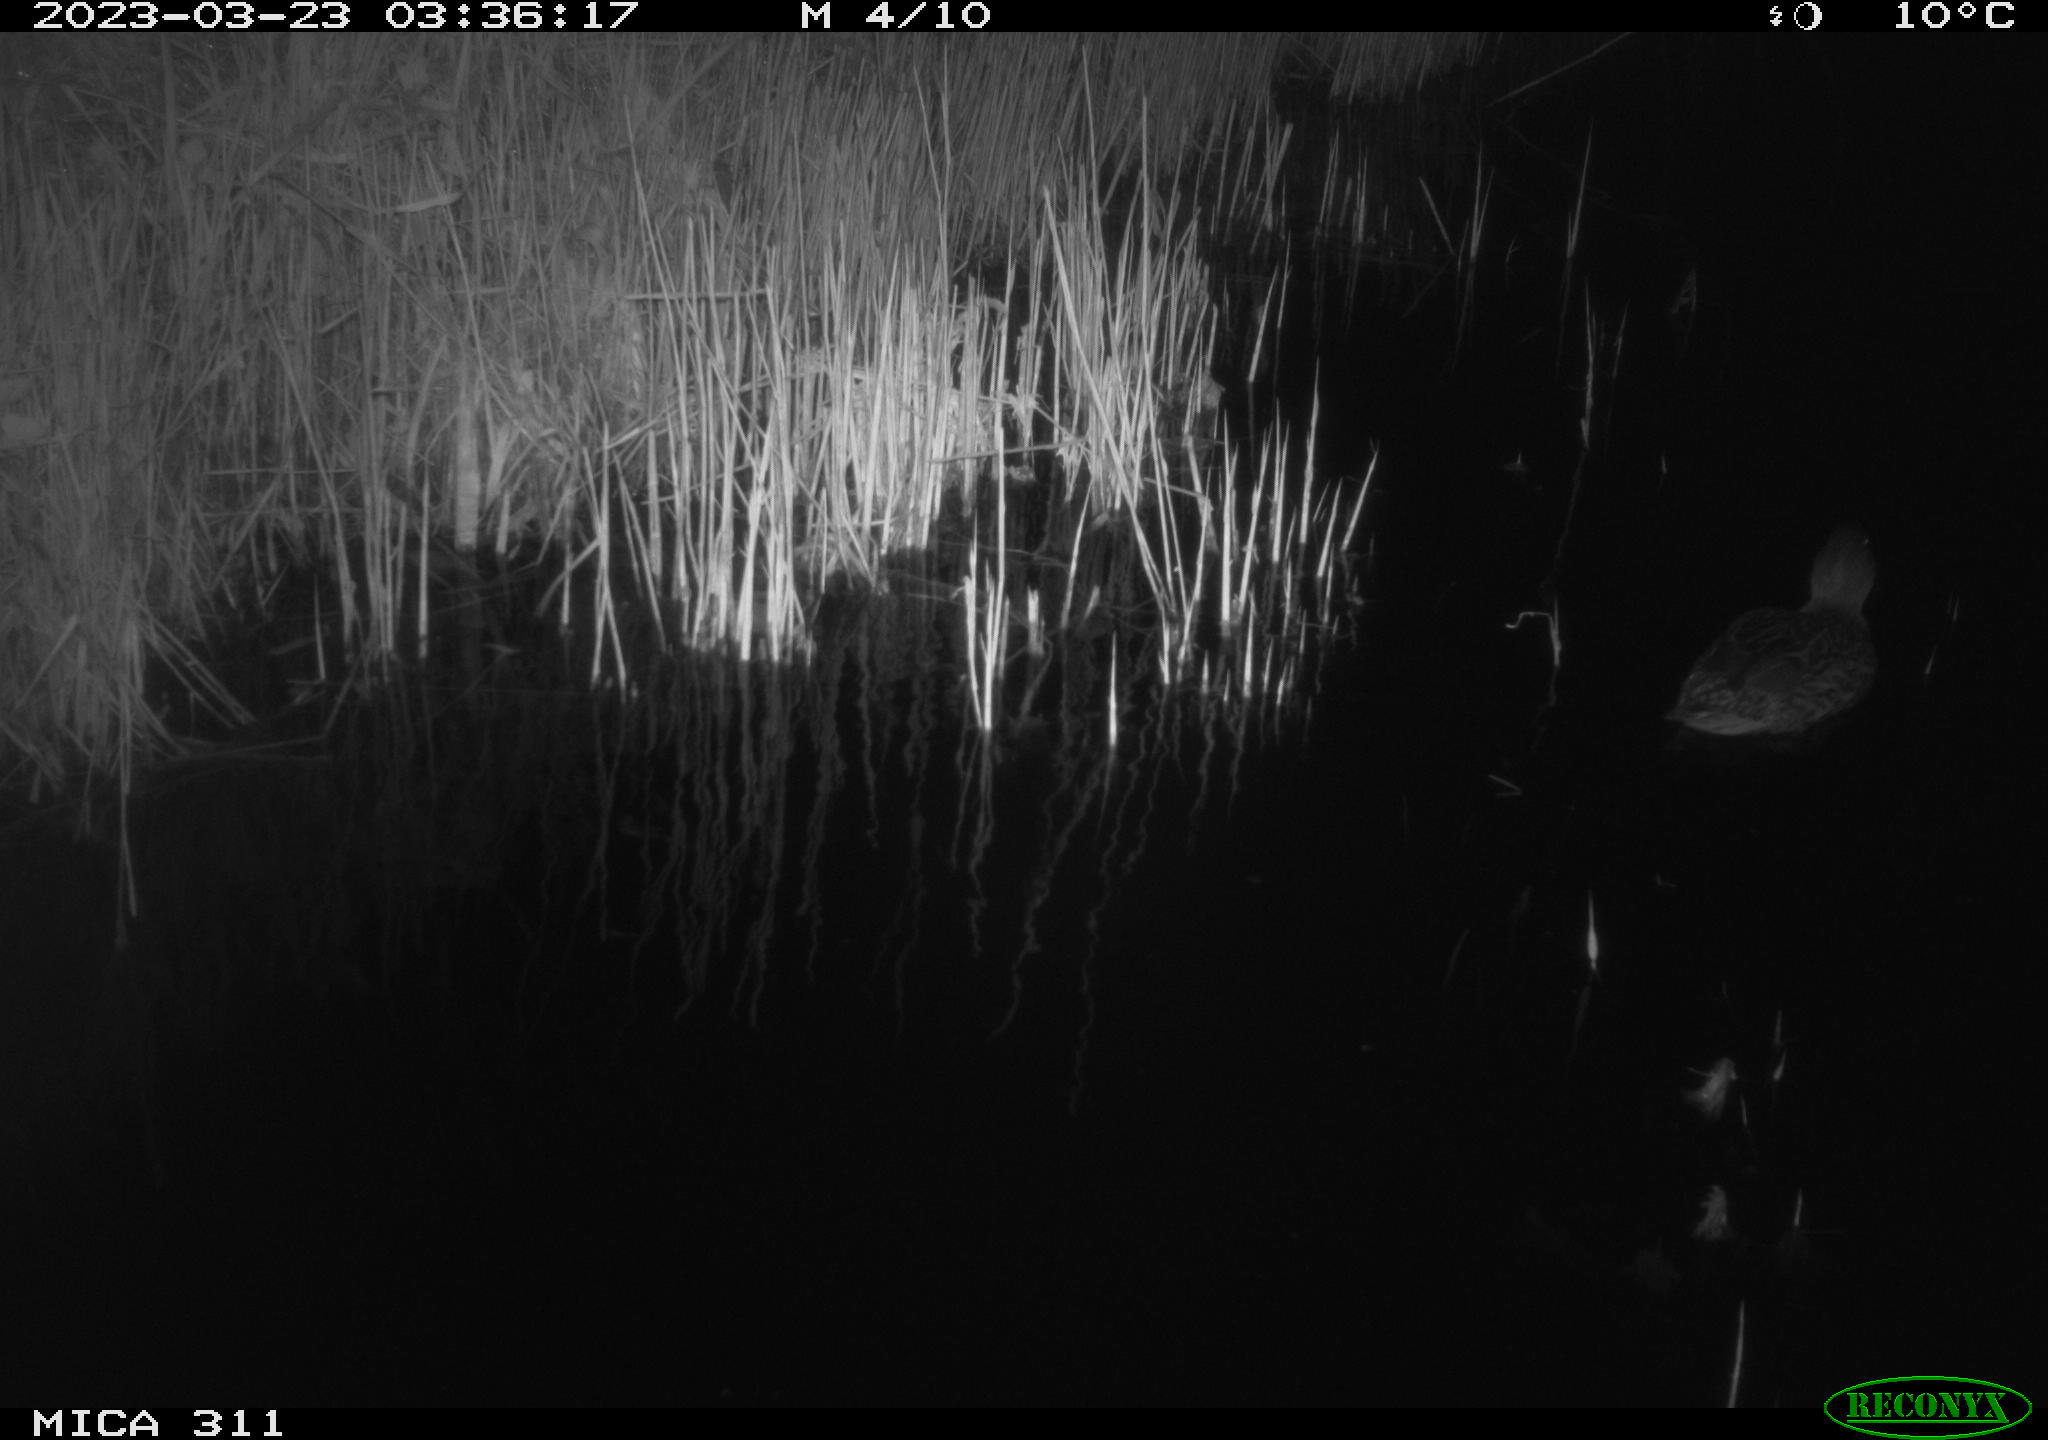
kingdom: Animalia
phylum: Chordata
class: Aves
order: Anseriformes
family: Anatidae
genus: Anas
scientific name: Anas
